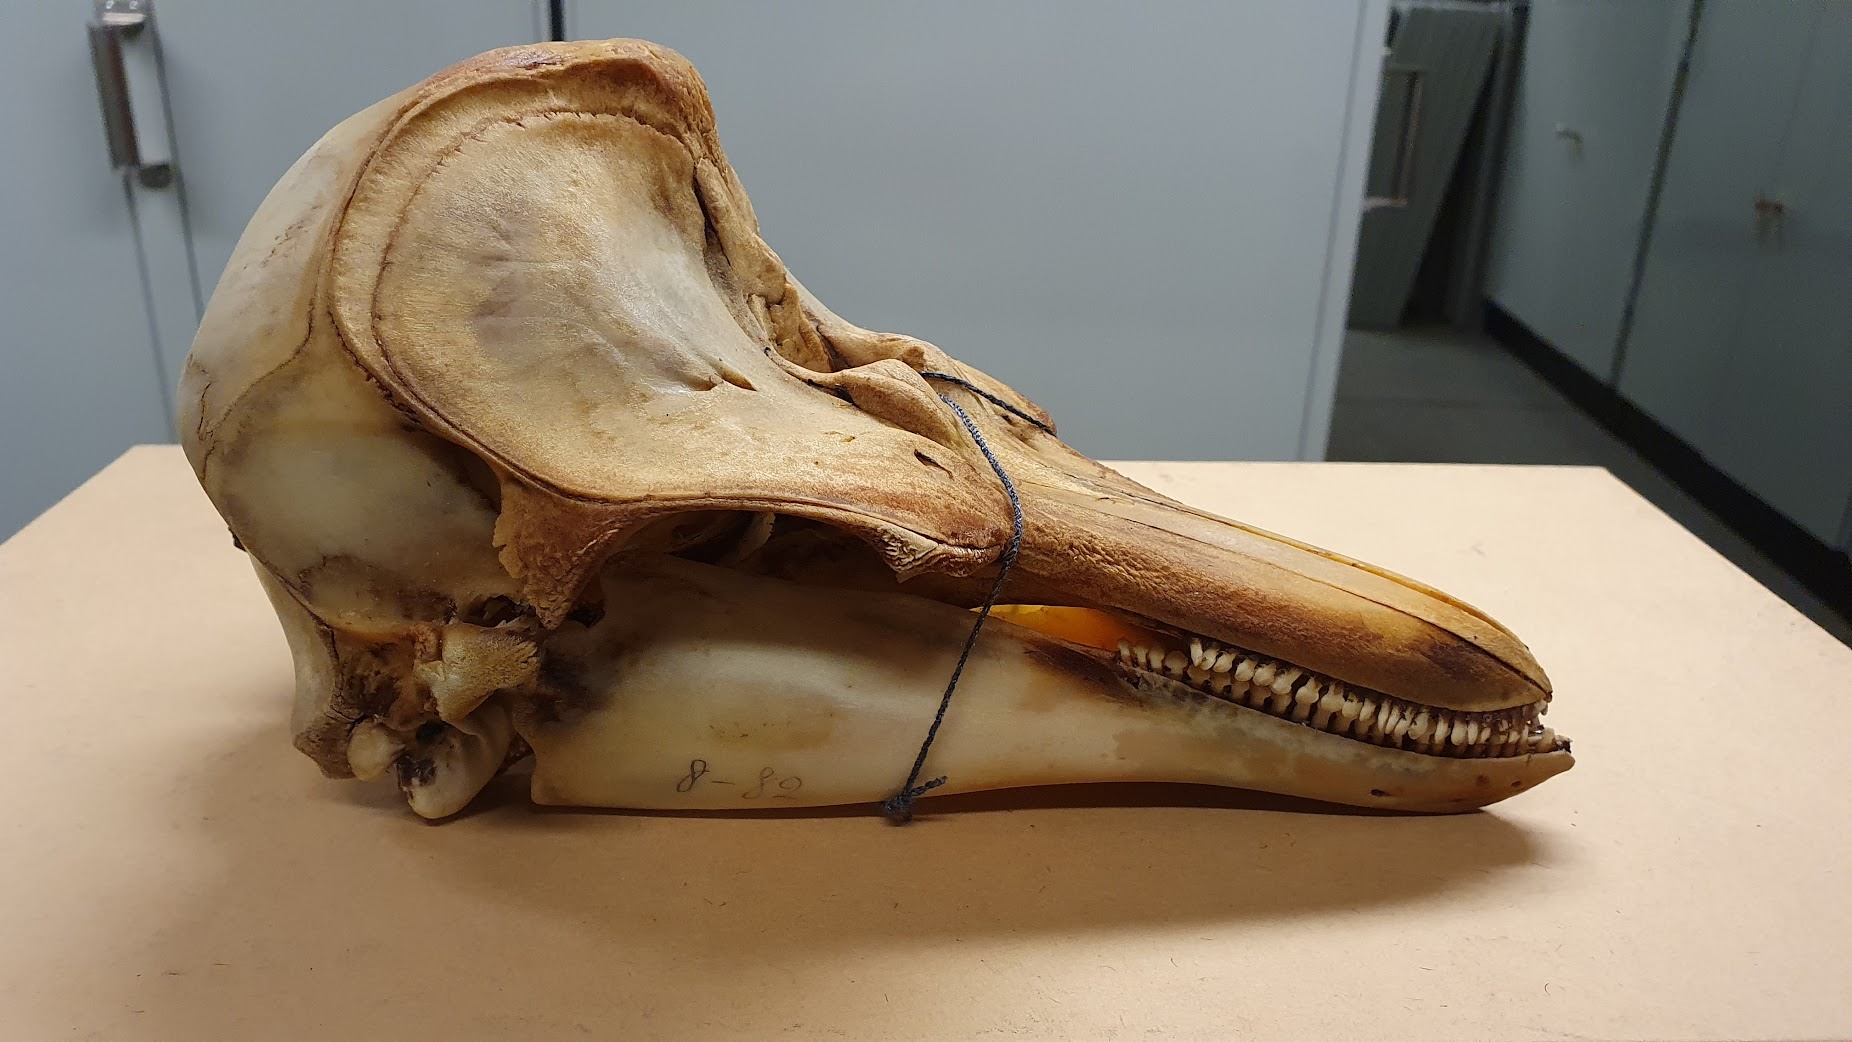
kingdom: Animalia
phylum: Chordata
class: Mammalia
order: Cetacea
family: Phocoenidae
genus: Phocoena
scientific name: Phocoena phocoena
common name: Harbor porpoise
